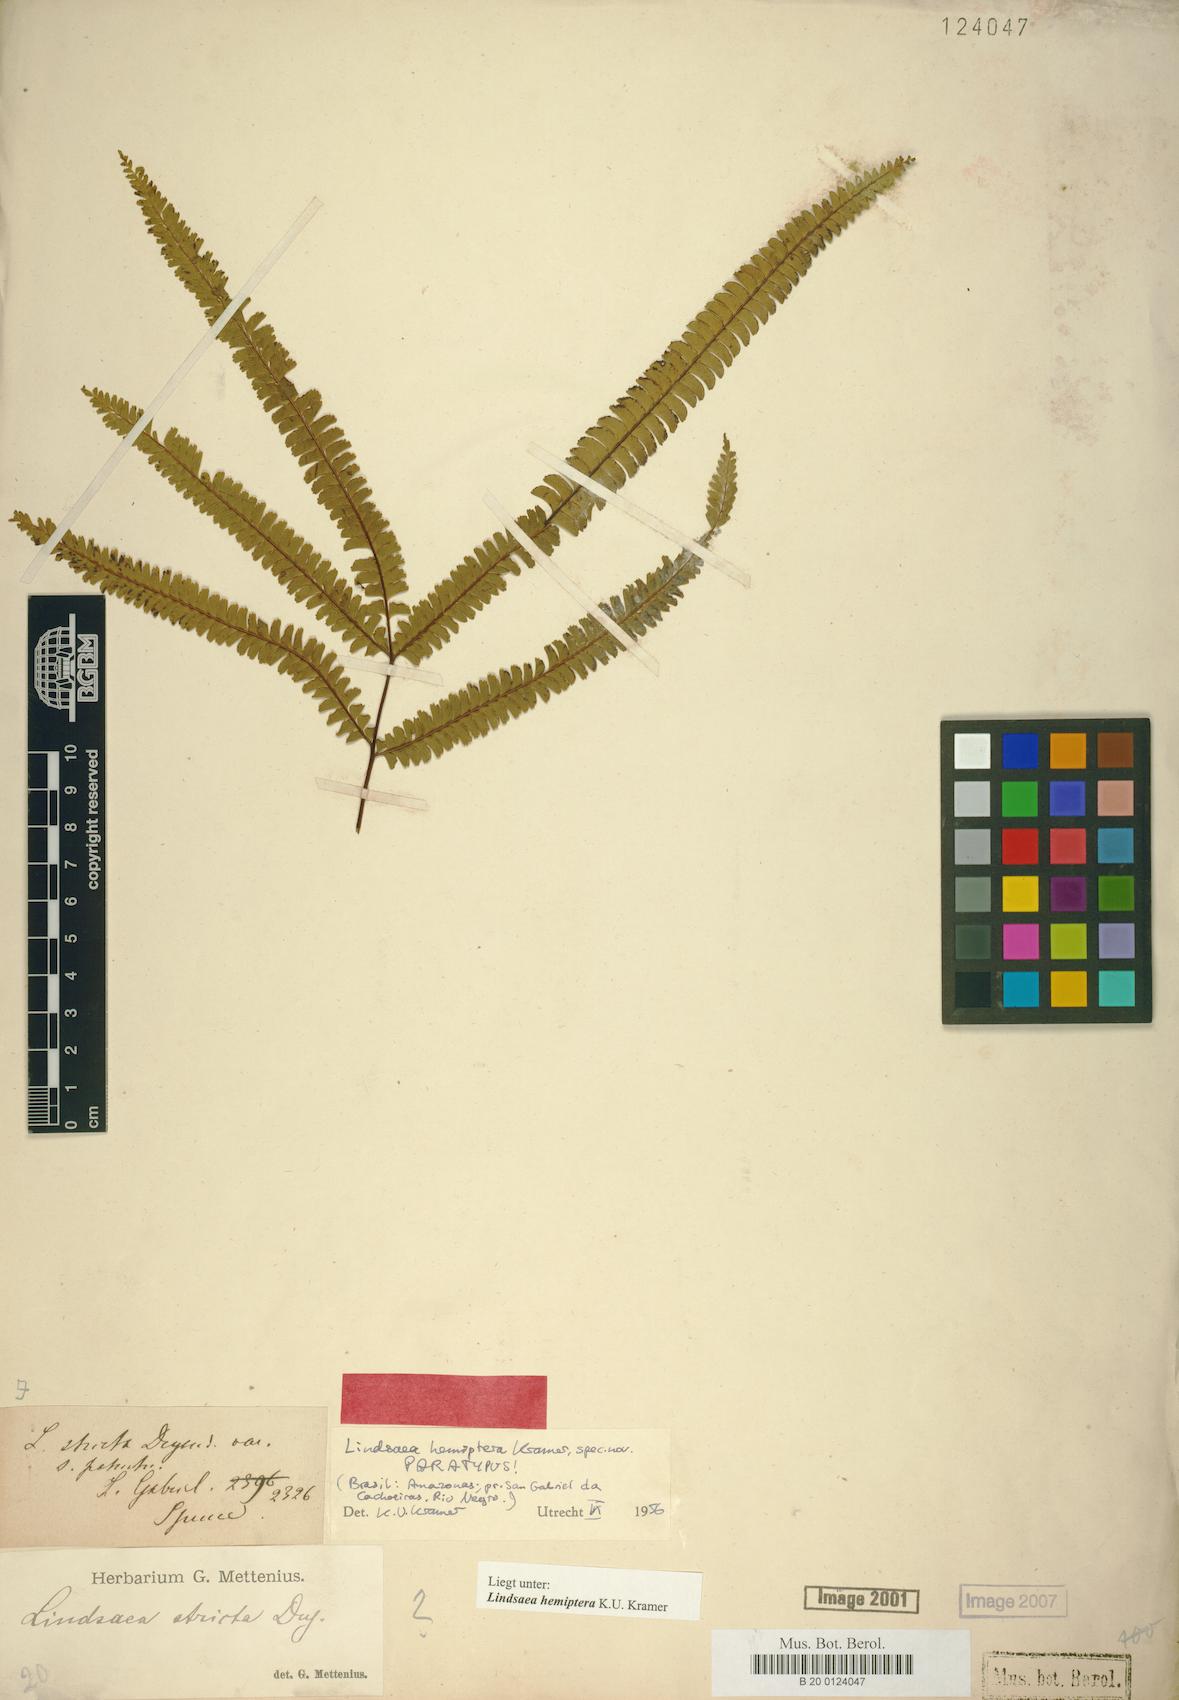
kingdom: Plantae
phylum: Tracheophyta
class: Polypodiopsida
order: Polypodiales
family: Lindsaeaceae
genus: Lindsaea
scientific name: Lindsaea hemiptera
